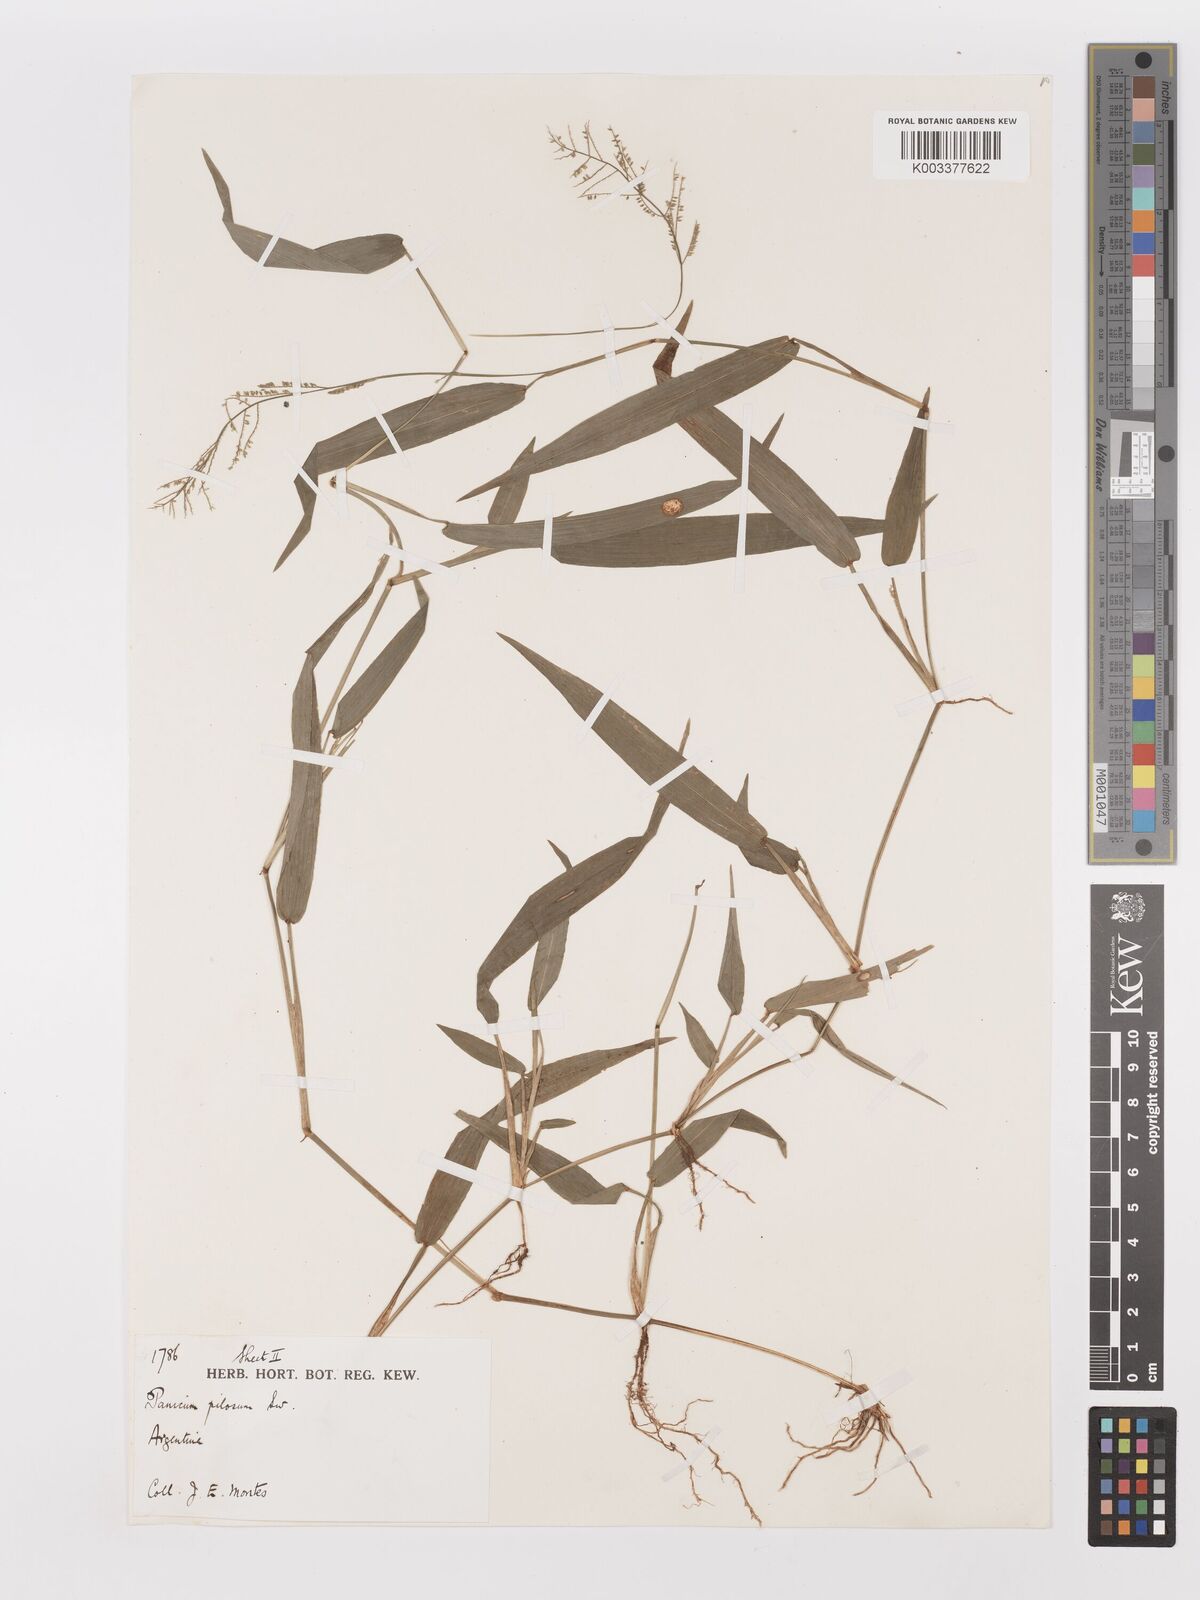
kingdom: Plantae
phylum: Tracheophyta
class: Liliopsida
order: Poales
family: Poaceae
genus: Panicum
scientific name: Panicum
